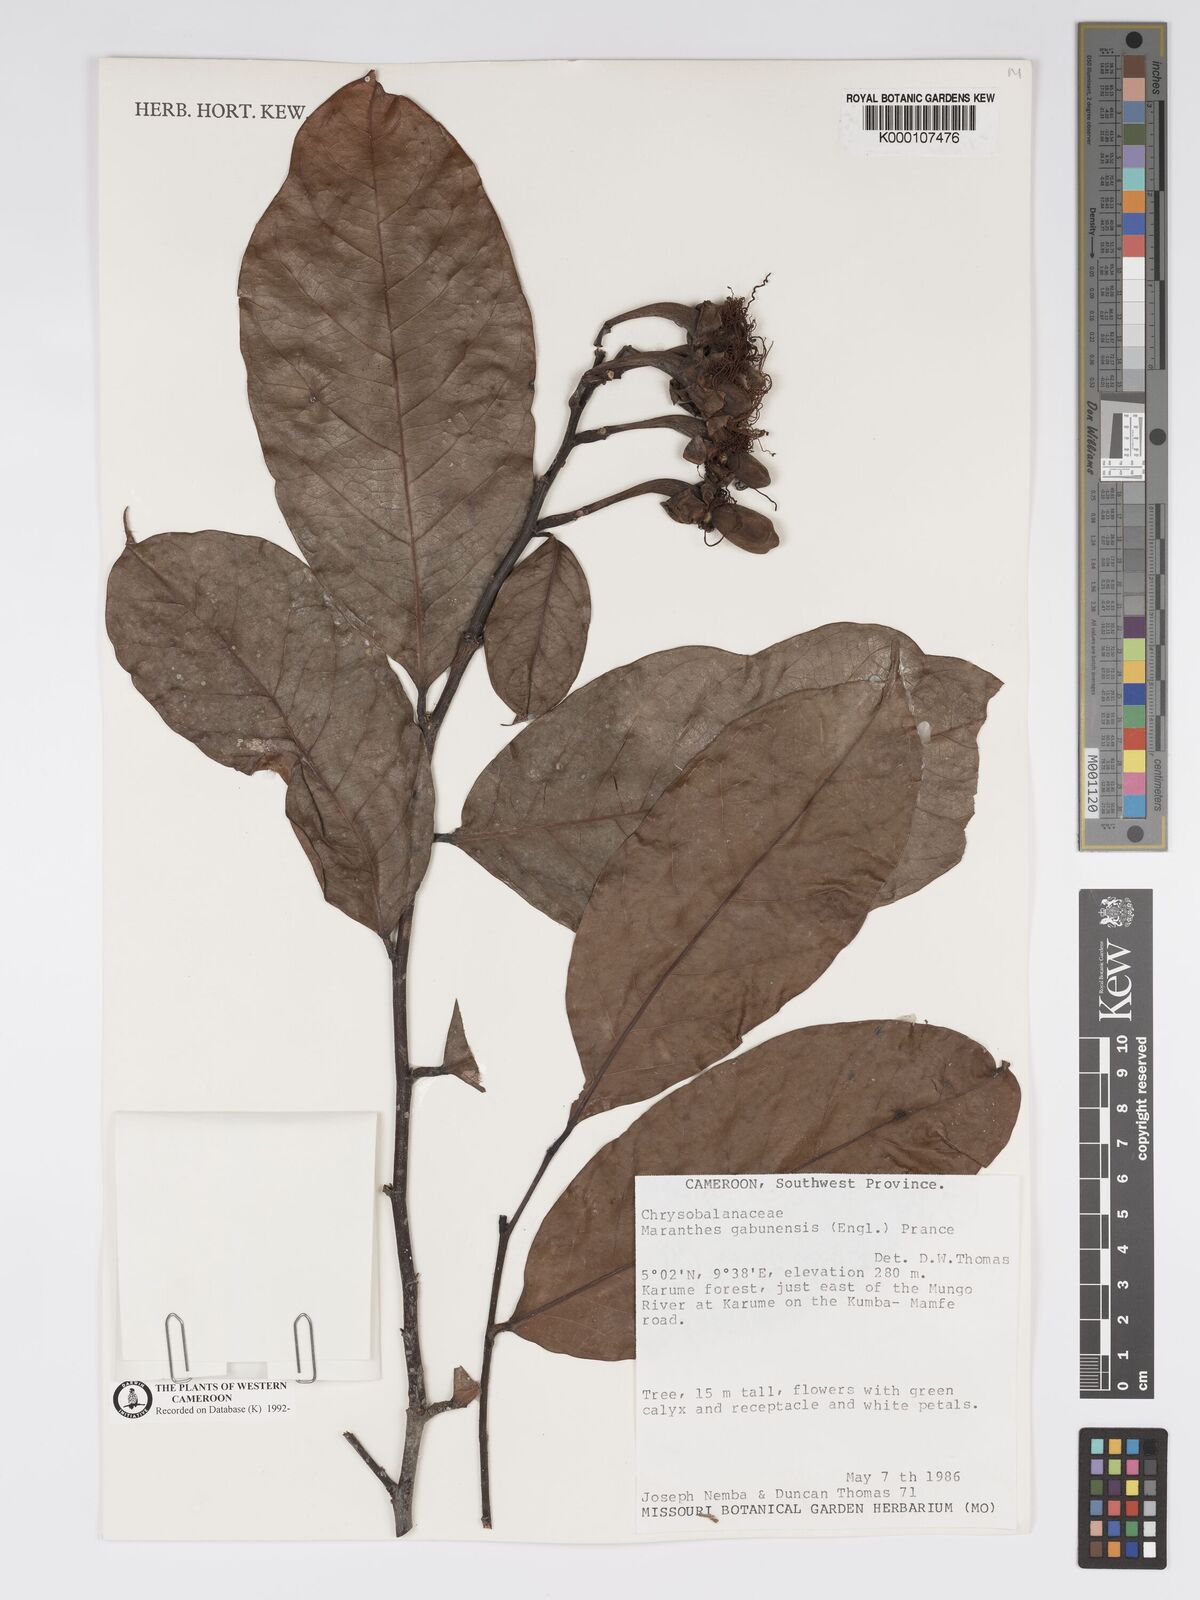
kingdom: Plantae
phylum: Tracheophyta
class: Magnoliopsida
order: Malpighiales
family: Chrysobalanaceae
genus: Maranthes
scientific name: Maranthes gabunensis
